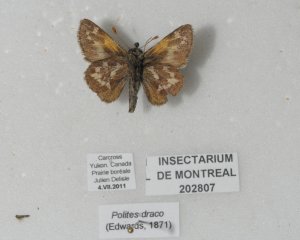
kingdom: Animalia
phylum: Arthropoda
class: Insecta
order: Lepidoptera
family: Hesperiidae
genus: Polites
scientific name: Polites sabuleti
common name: Draco Skipper
